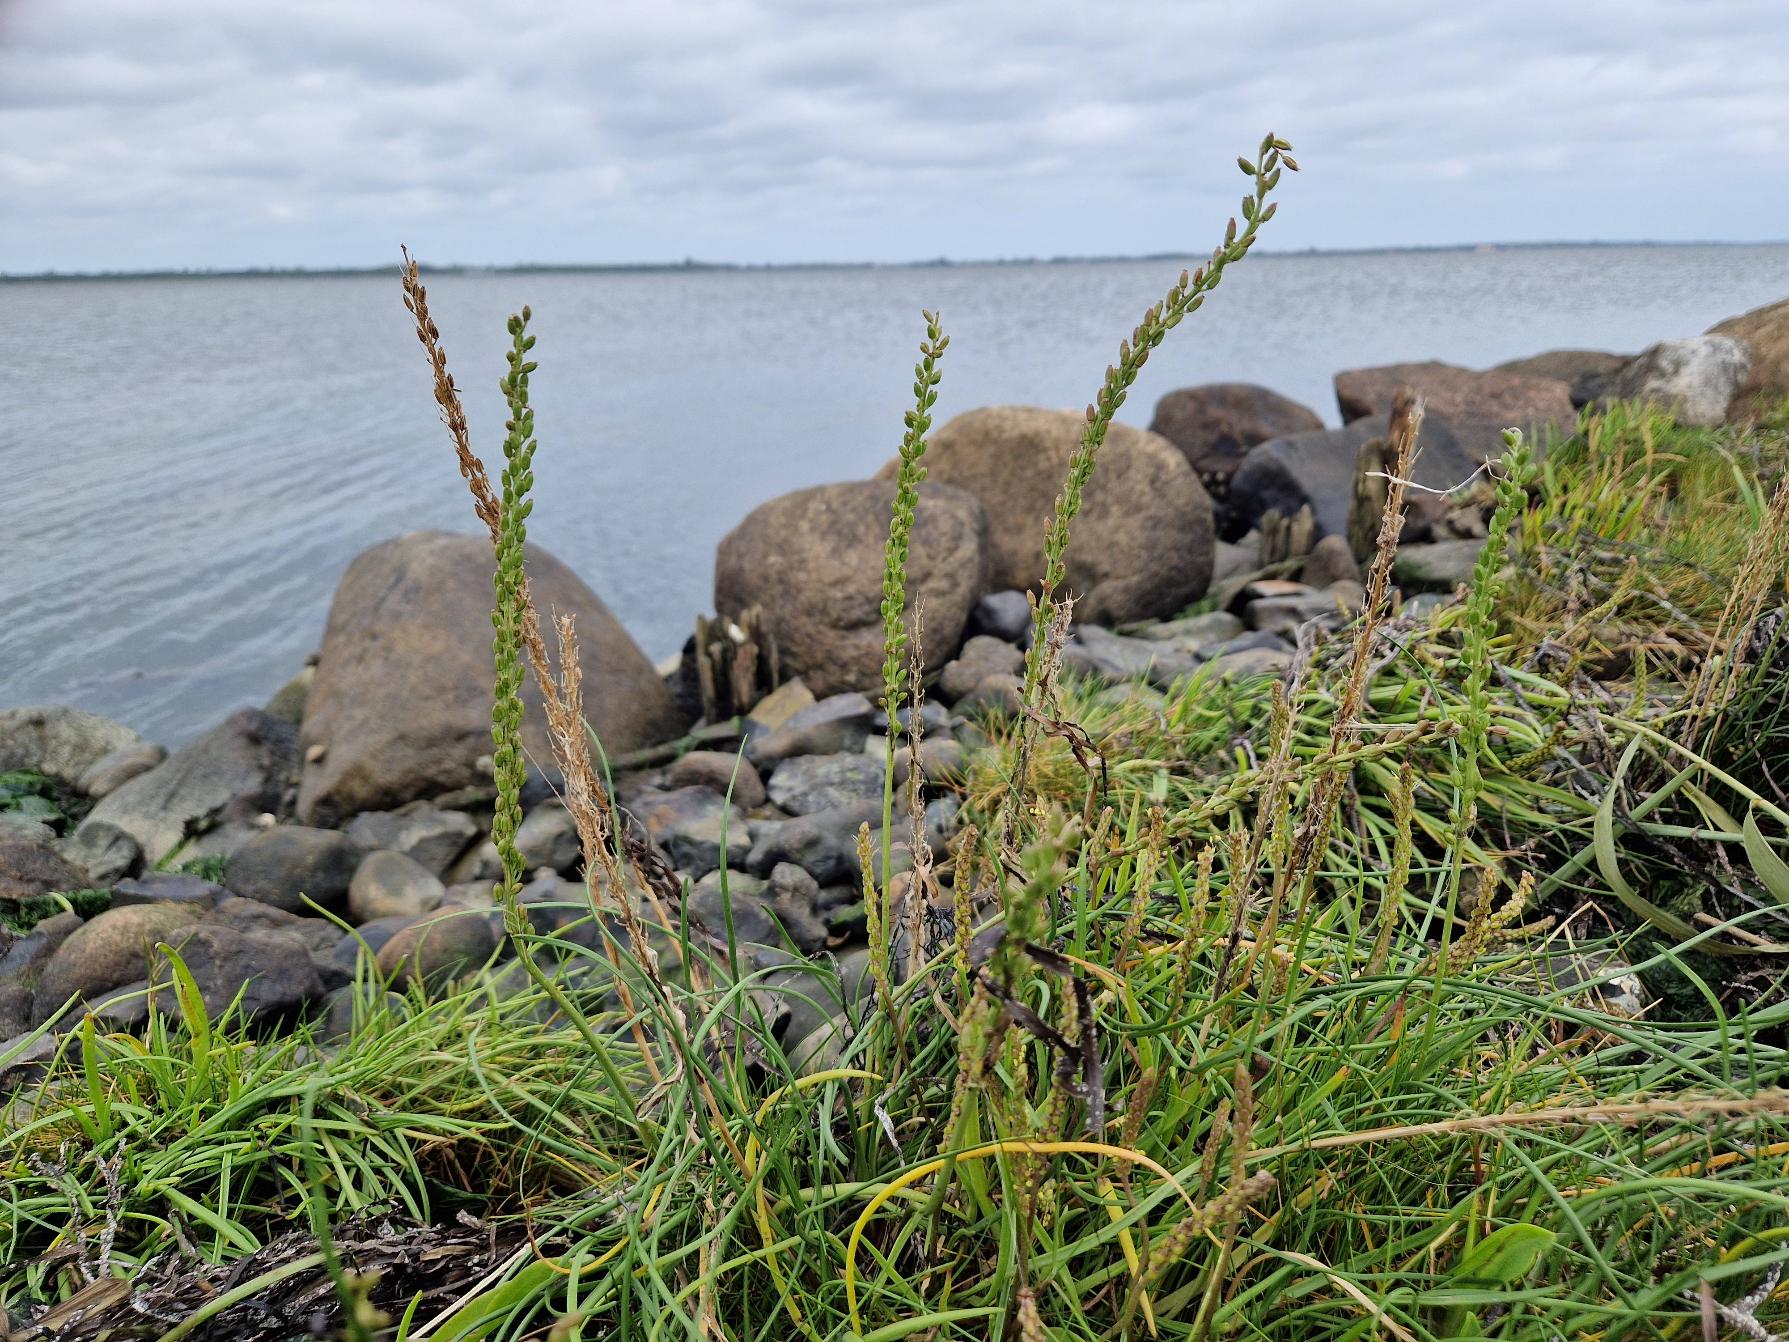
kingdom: Plantae
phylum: Tracheophyta
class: Liliopsida
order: Alismatales
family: Juncaginaceae
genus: Triglochin
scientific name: Triglochin maritima
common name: Strand-trehage
